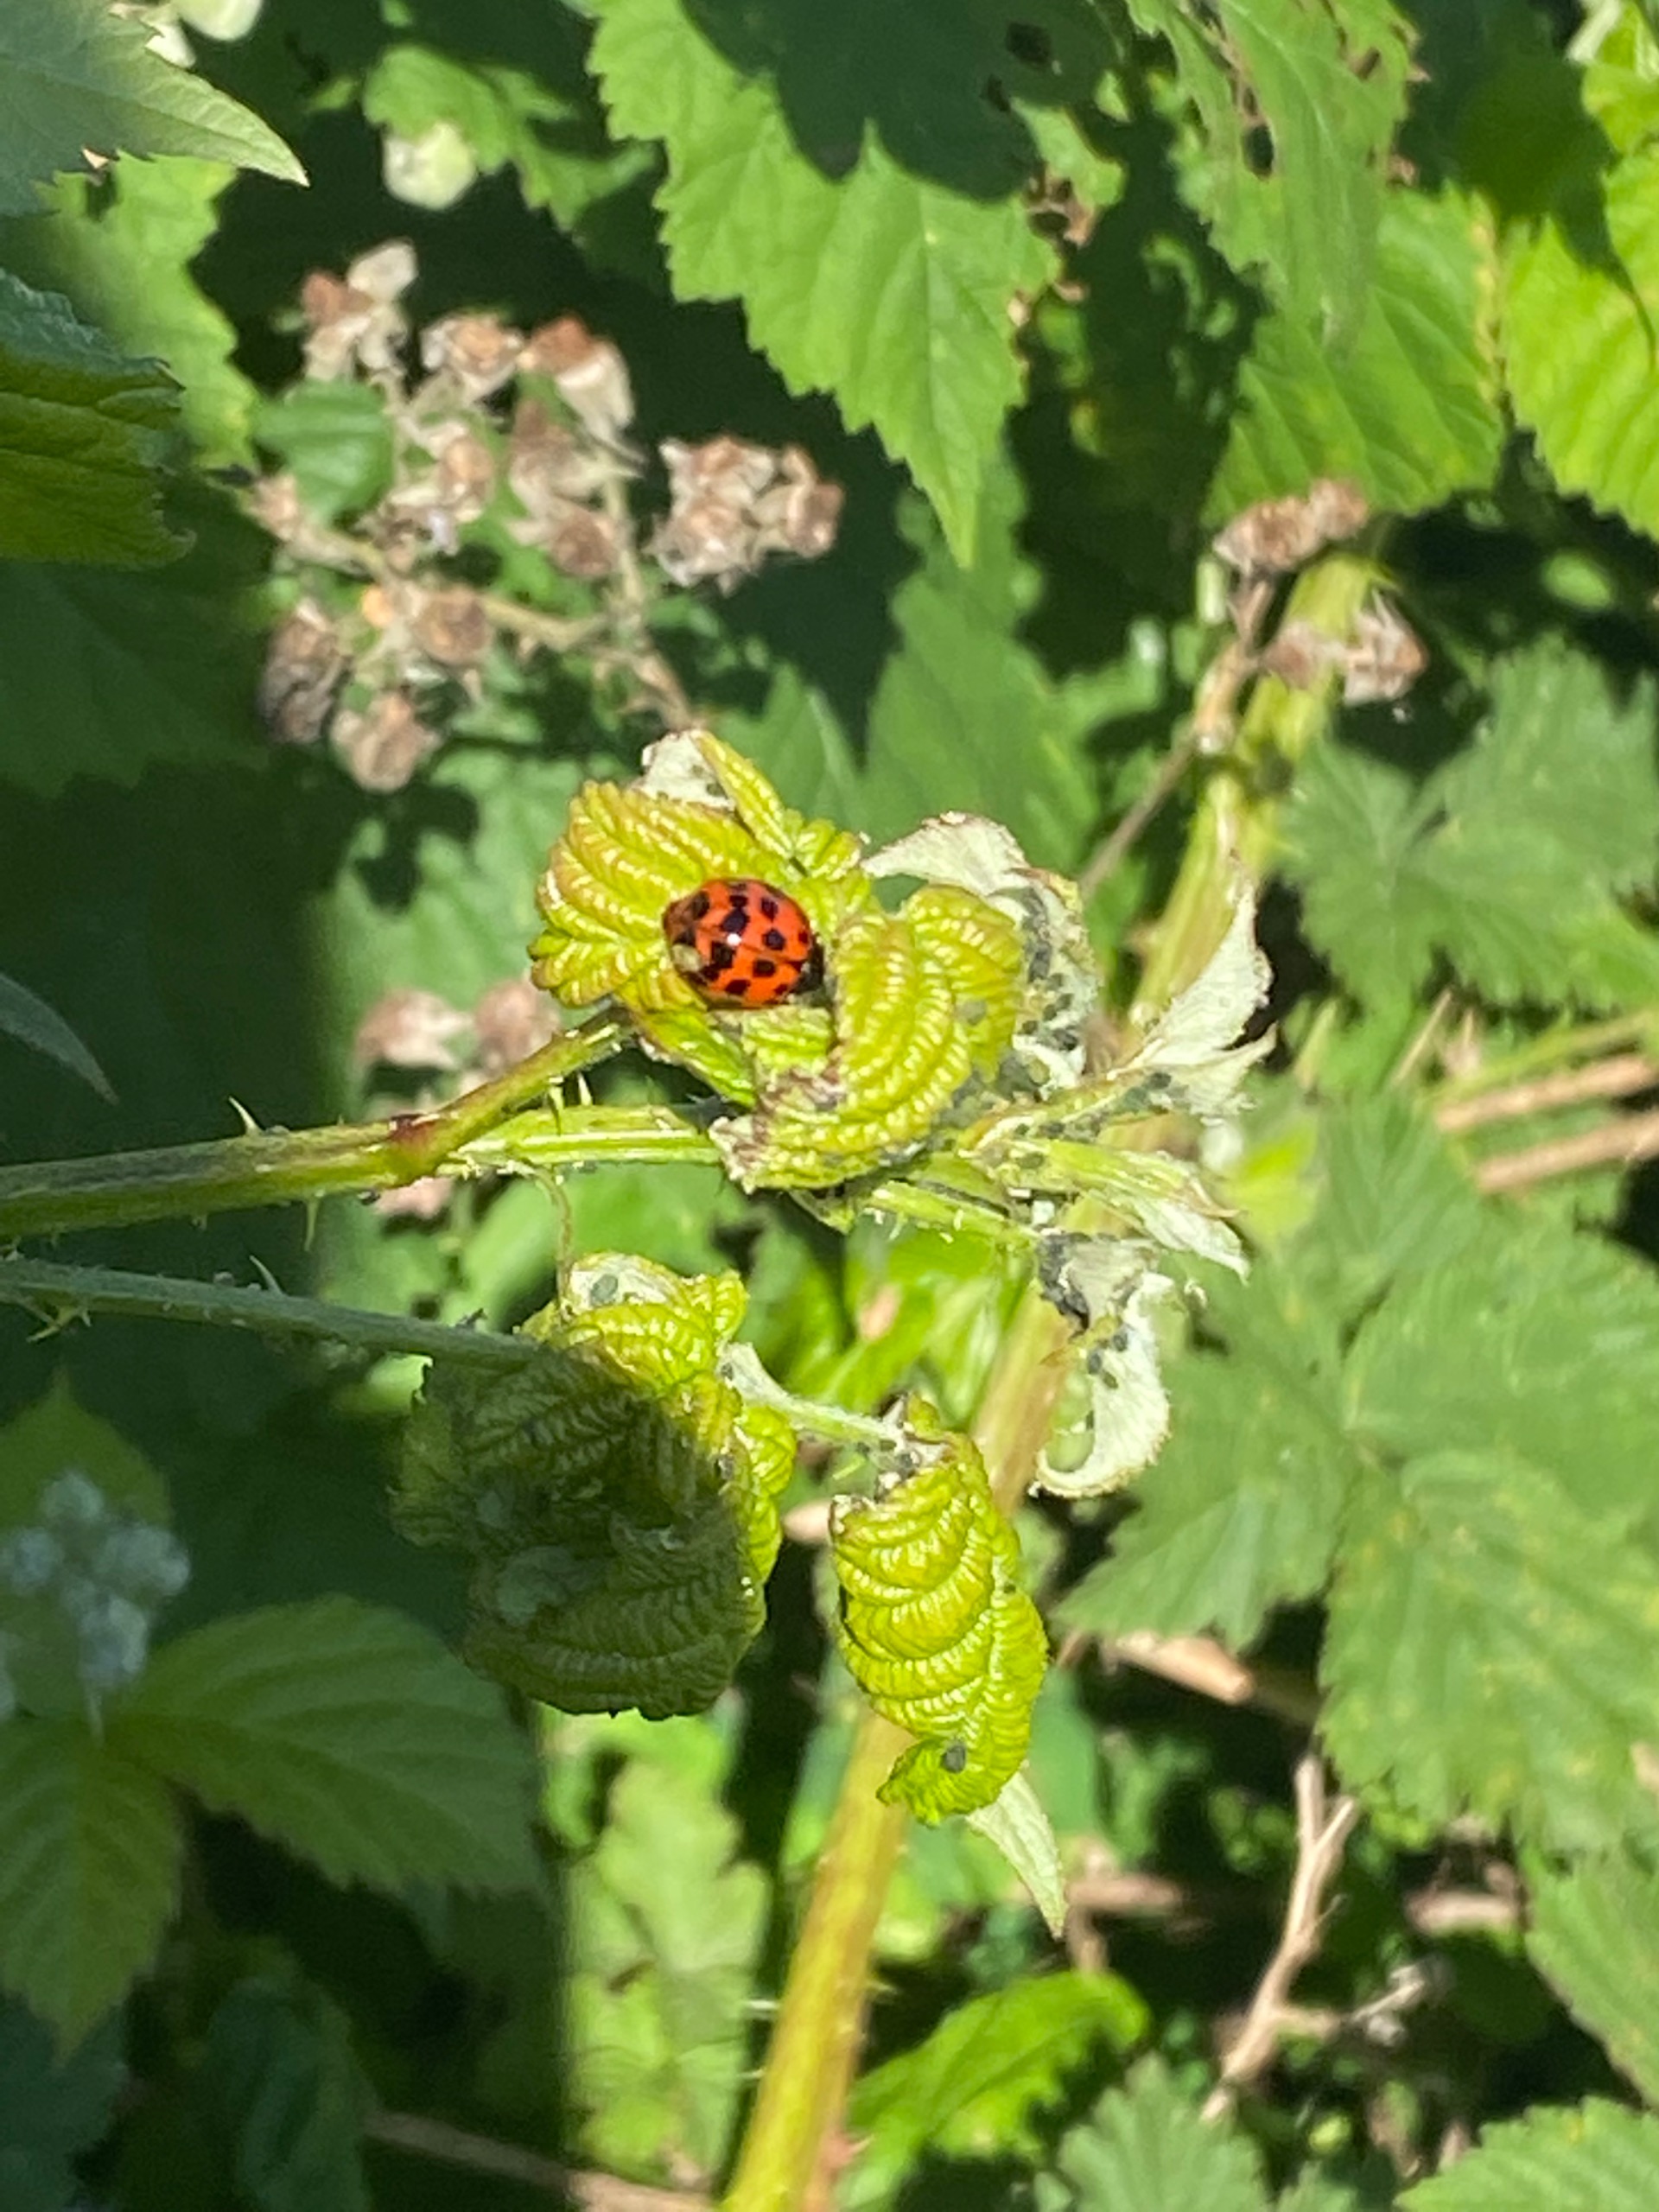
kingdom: Animalia
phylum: Arthropoda
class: Insecta
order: Coleoptera
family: Coccinellidae
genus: Harmonia
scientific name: Harmonia axyridis
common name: Harlekinmariehøne
